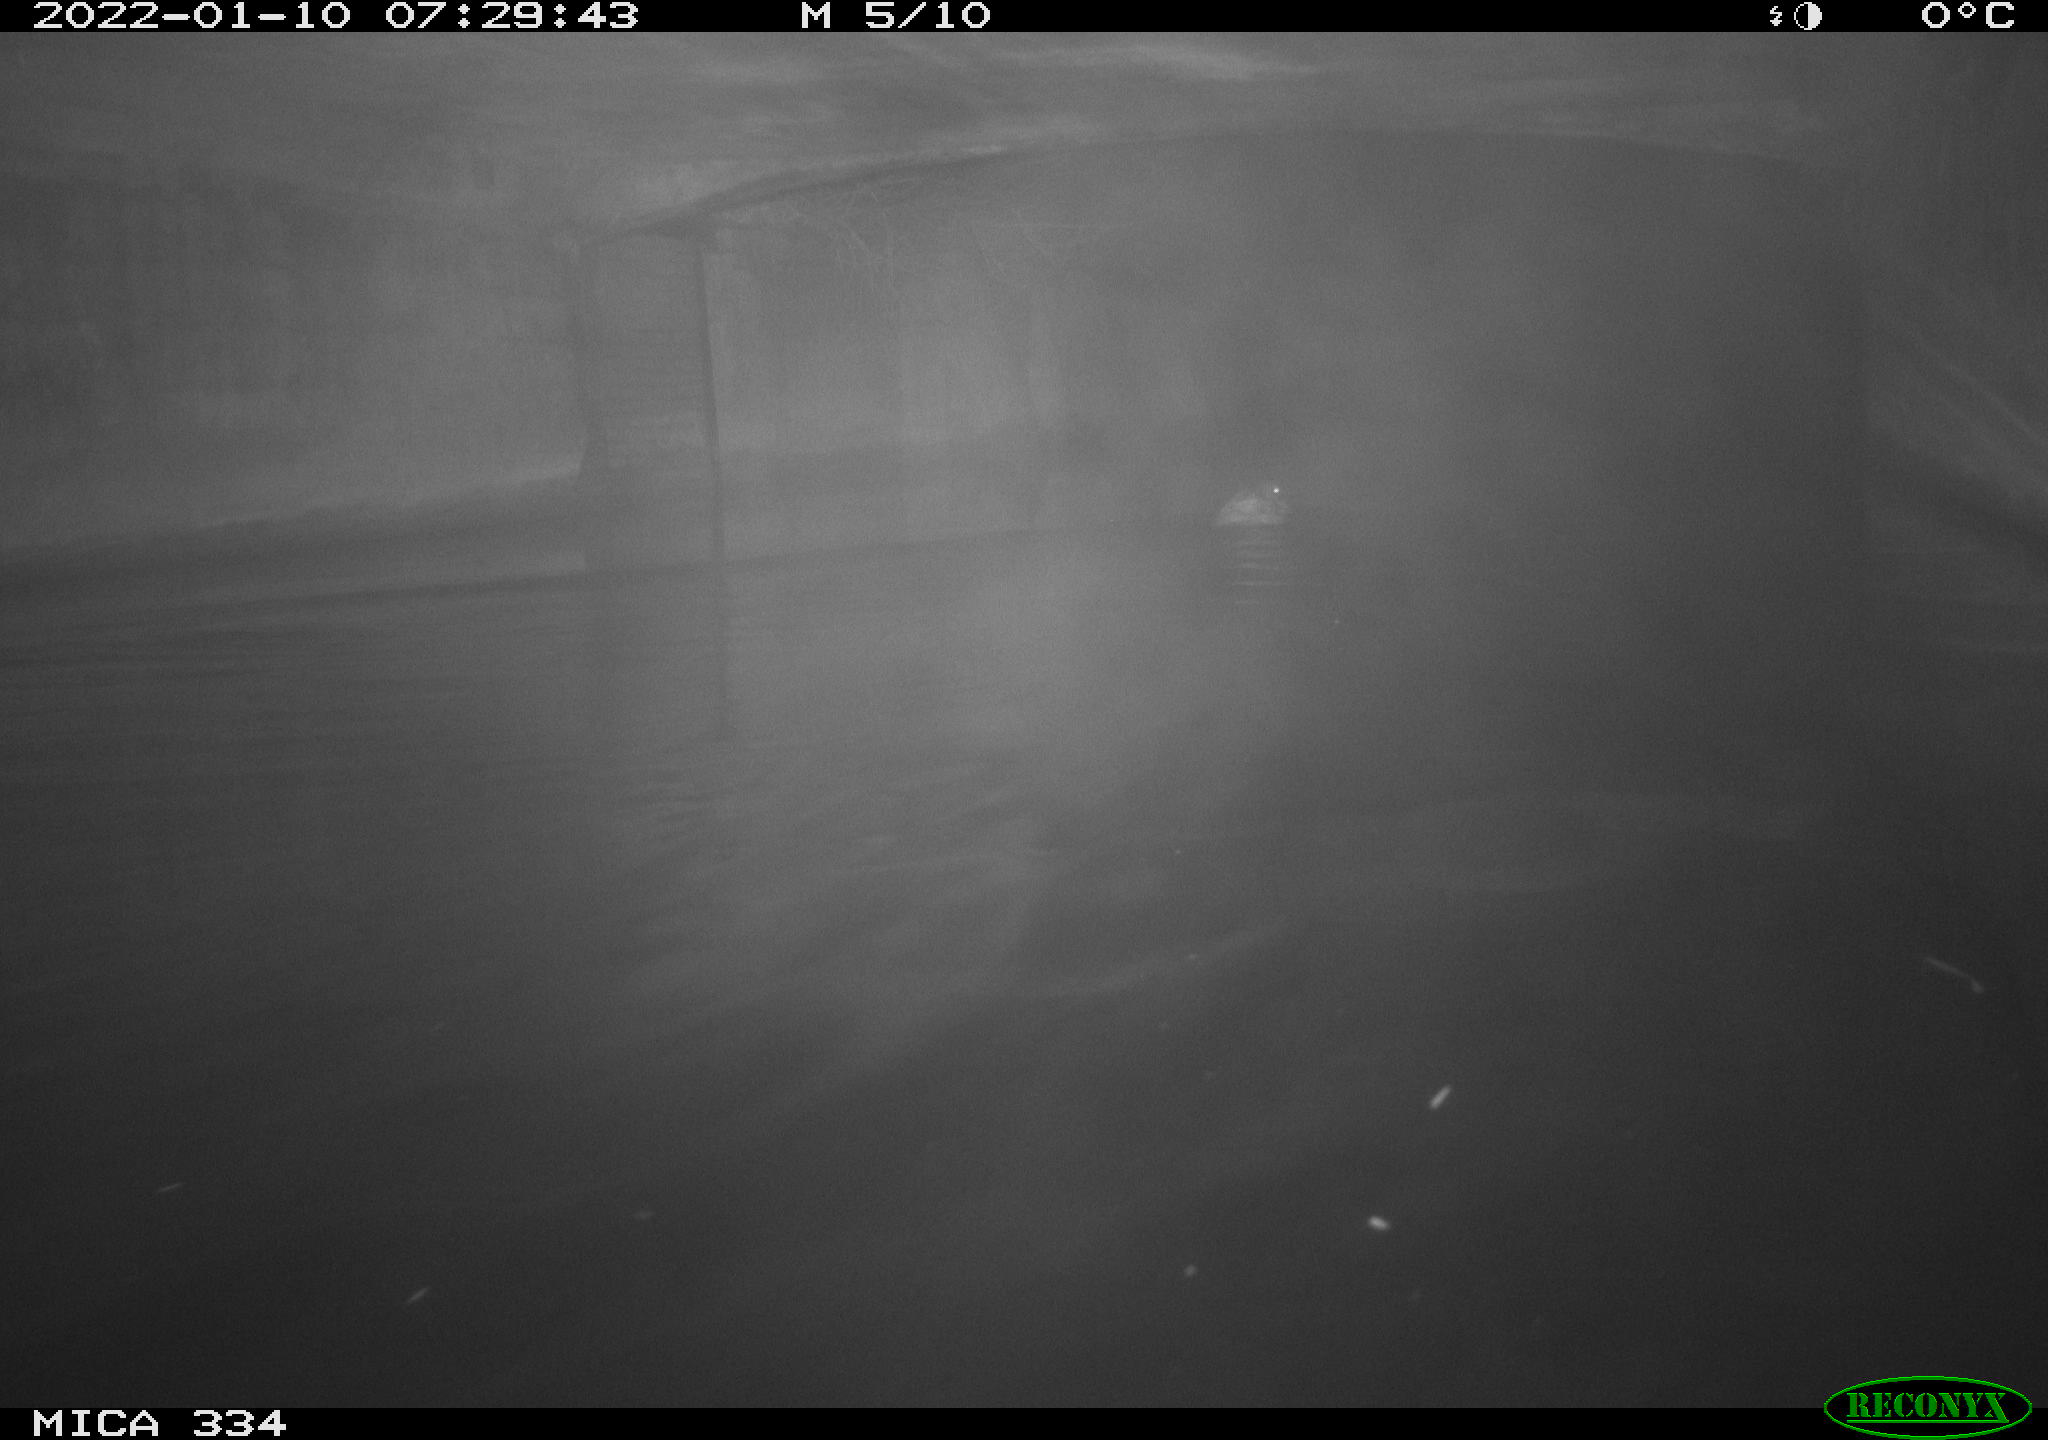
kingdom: Animalia
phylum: Chordata
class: Aves
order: Anseriformes
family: Anatidae
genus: Anas
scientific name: Anas platyrhynchos
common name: Mallard
